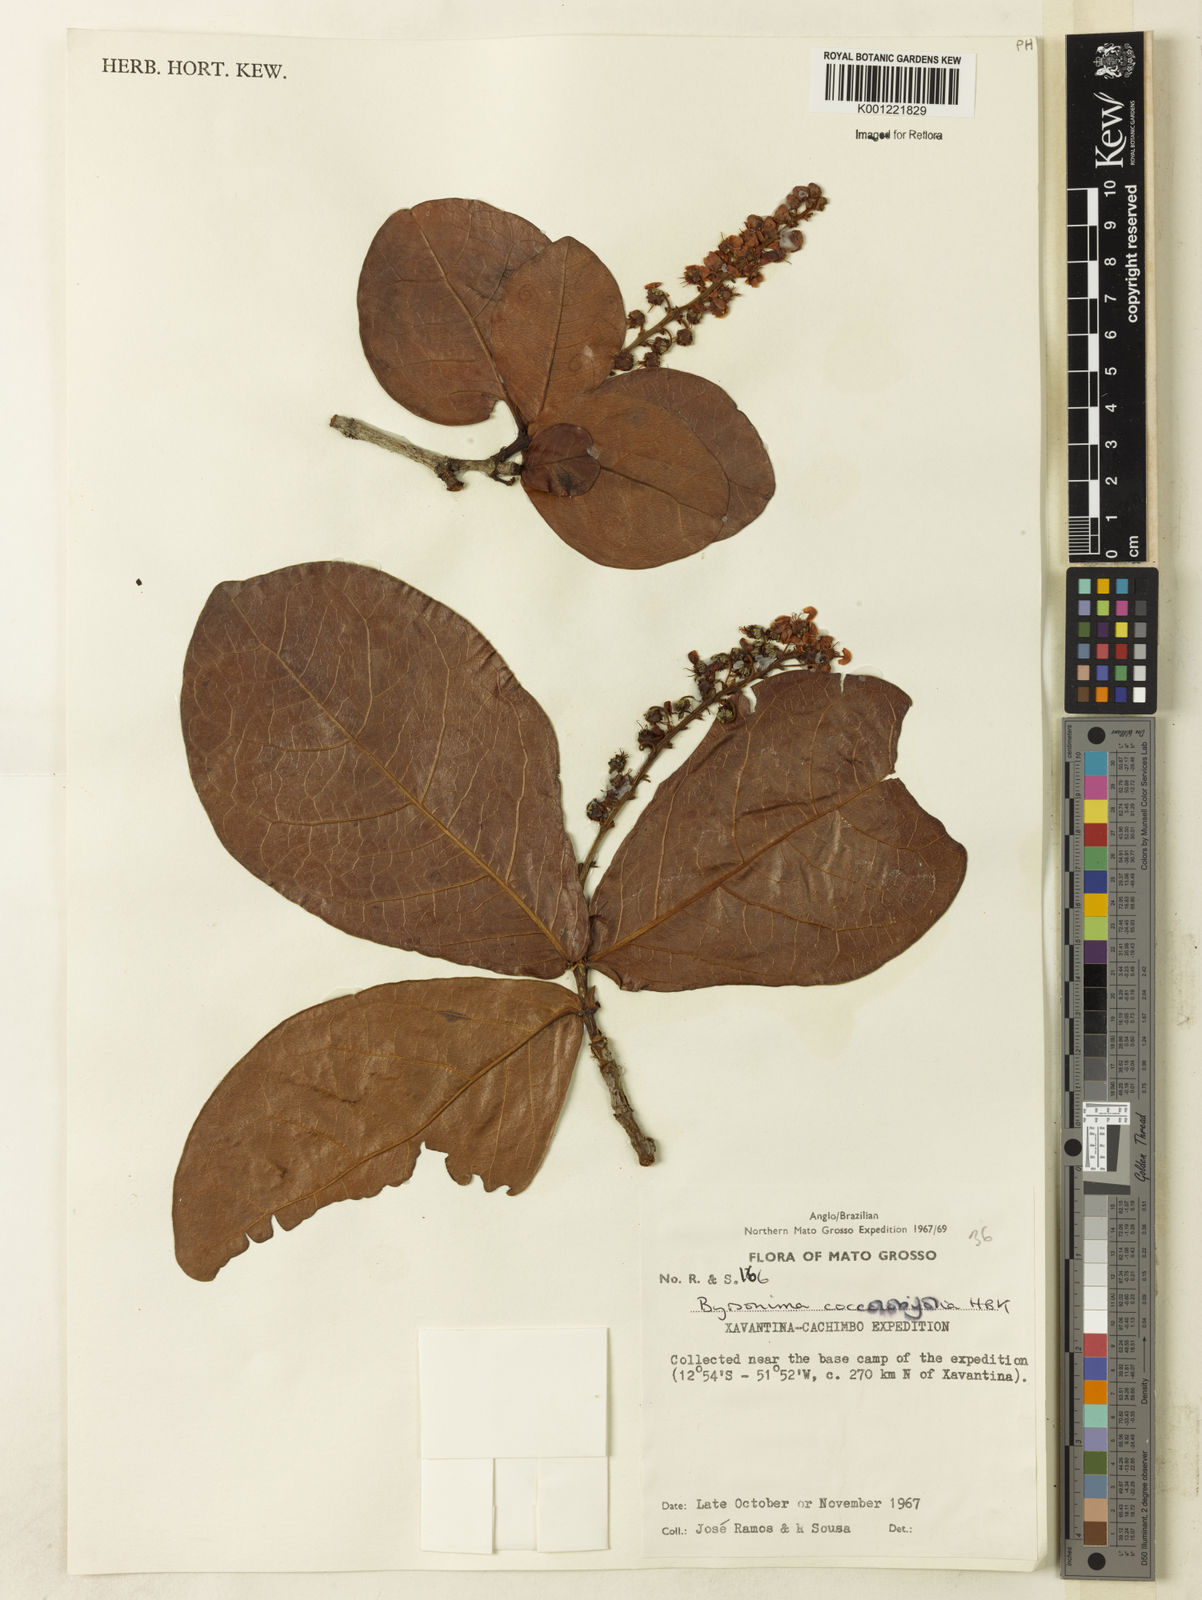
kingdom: Plantae
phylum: Tracheophyta
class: Magnoliopsida
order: Malpighiales
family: Malpighiaceae
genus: Byrsonima
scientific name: Byrsonima coccolobifolia
